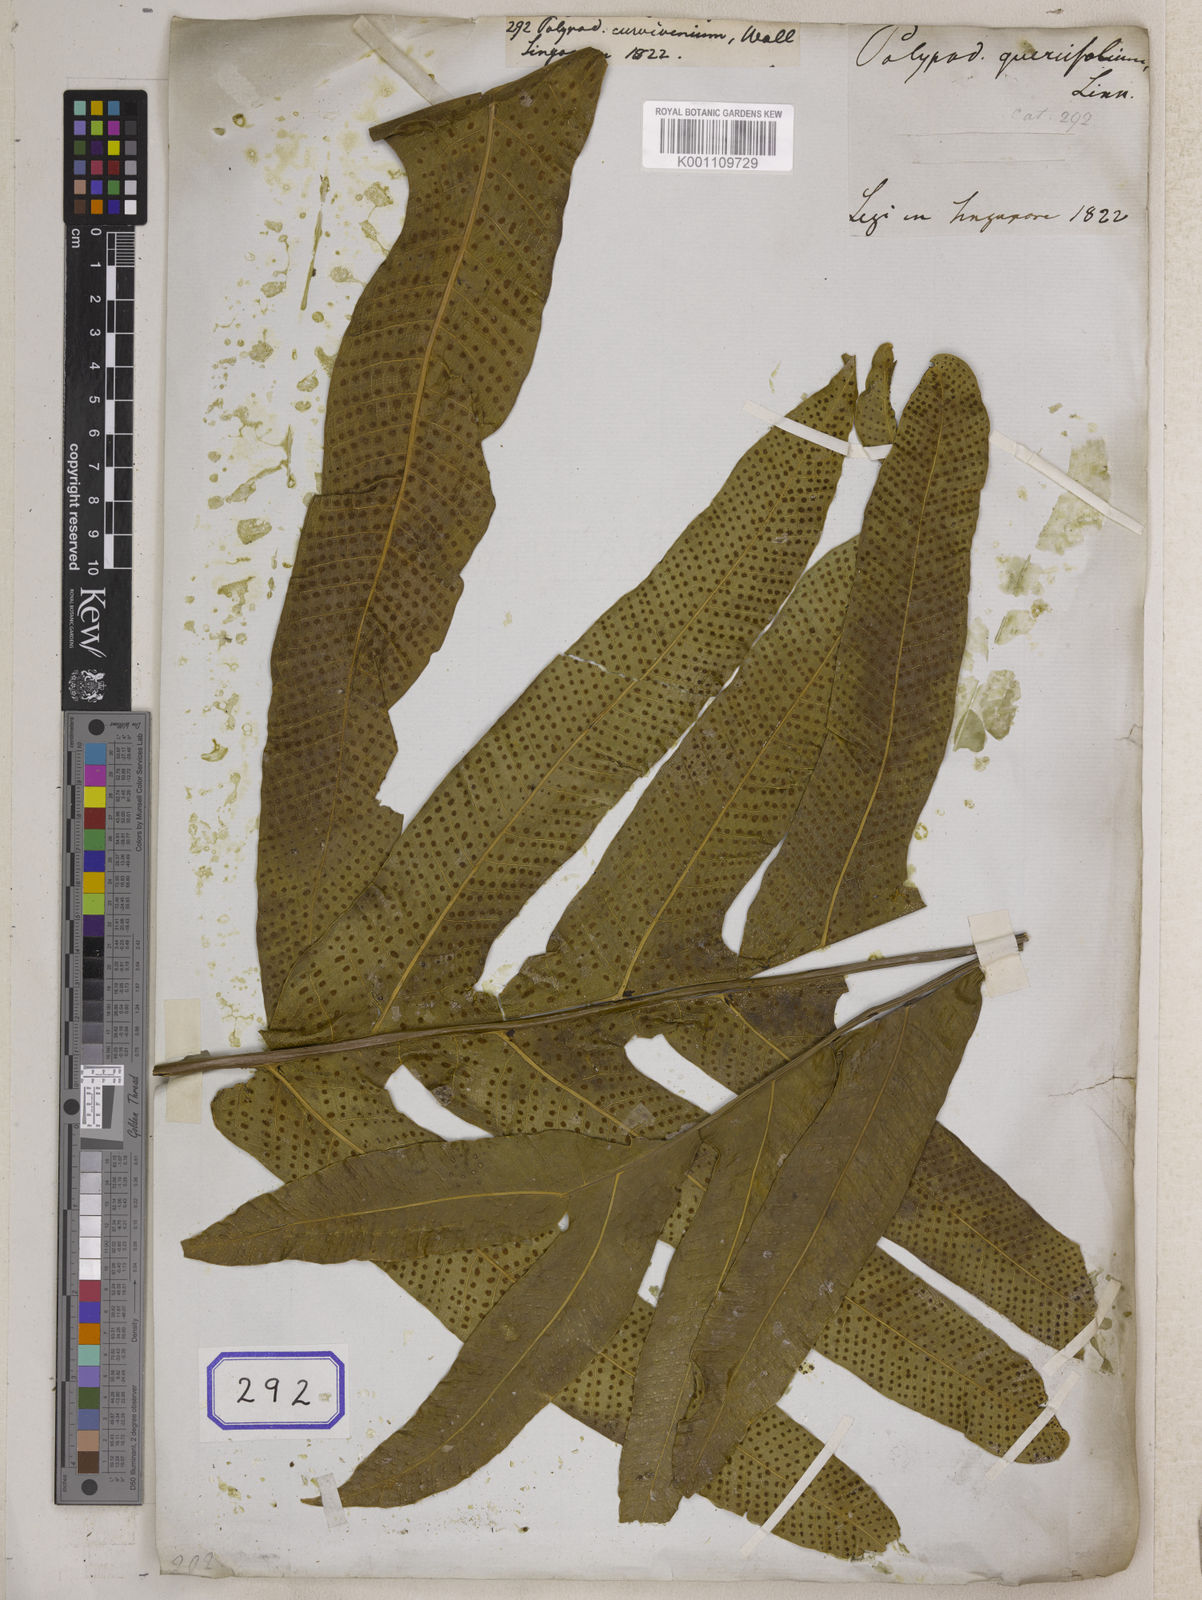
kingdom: Plantae
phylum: Tracheophyta
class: Polypodiopsida
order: Polypodiales
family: Polypodiaceae
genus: Polypodium
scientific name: Polypodium curvivenium
